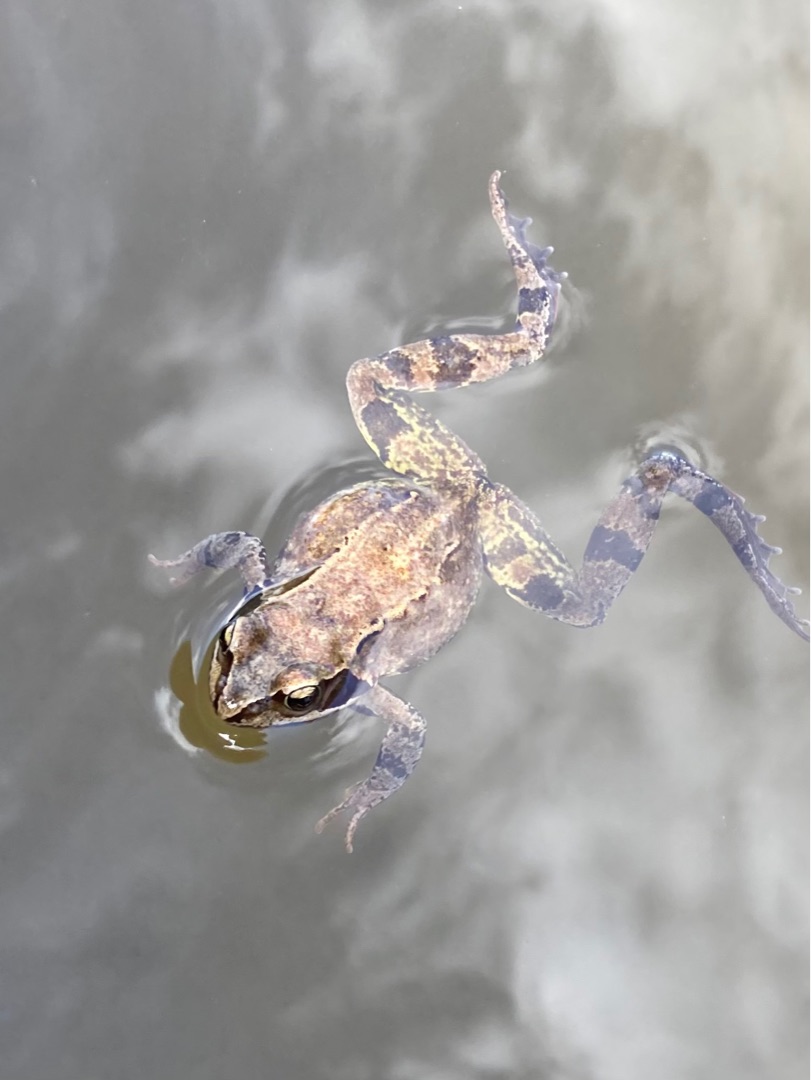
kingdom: Animalia
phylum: Chordata
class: Amphibia
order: Anura
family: Ranidae
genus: Rana
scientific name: Rana temporaria
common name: Butsnudet frø
